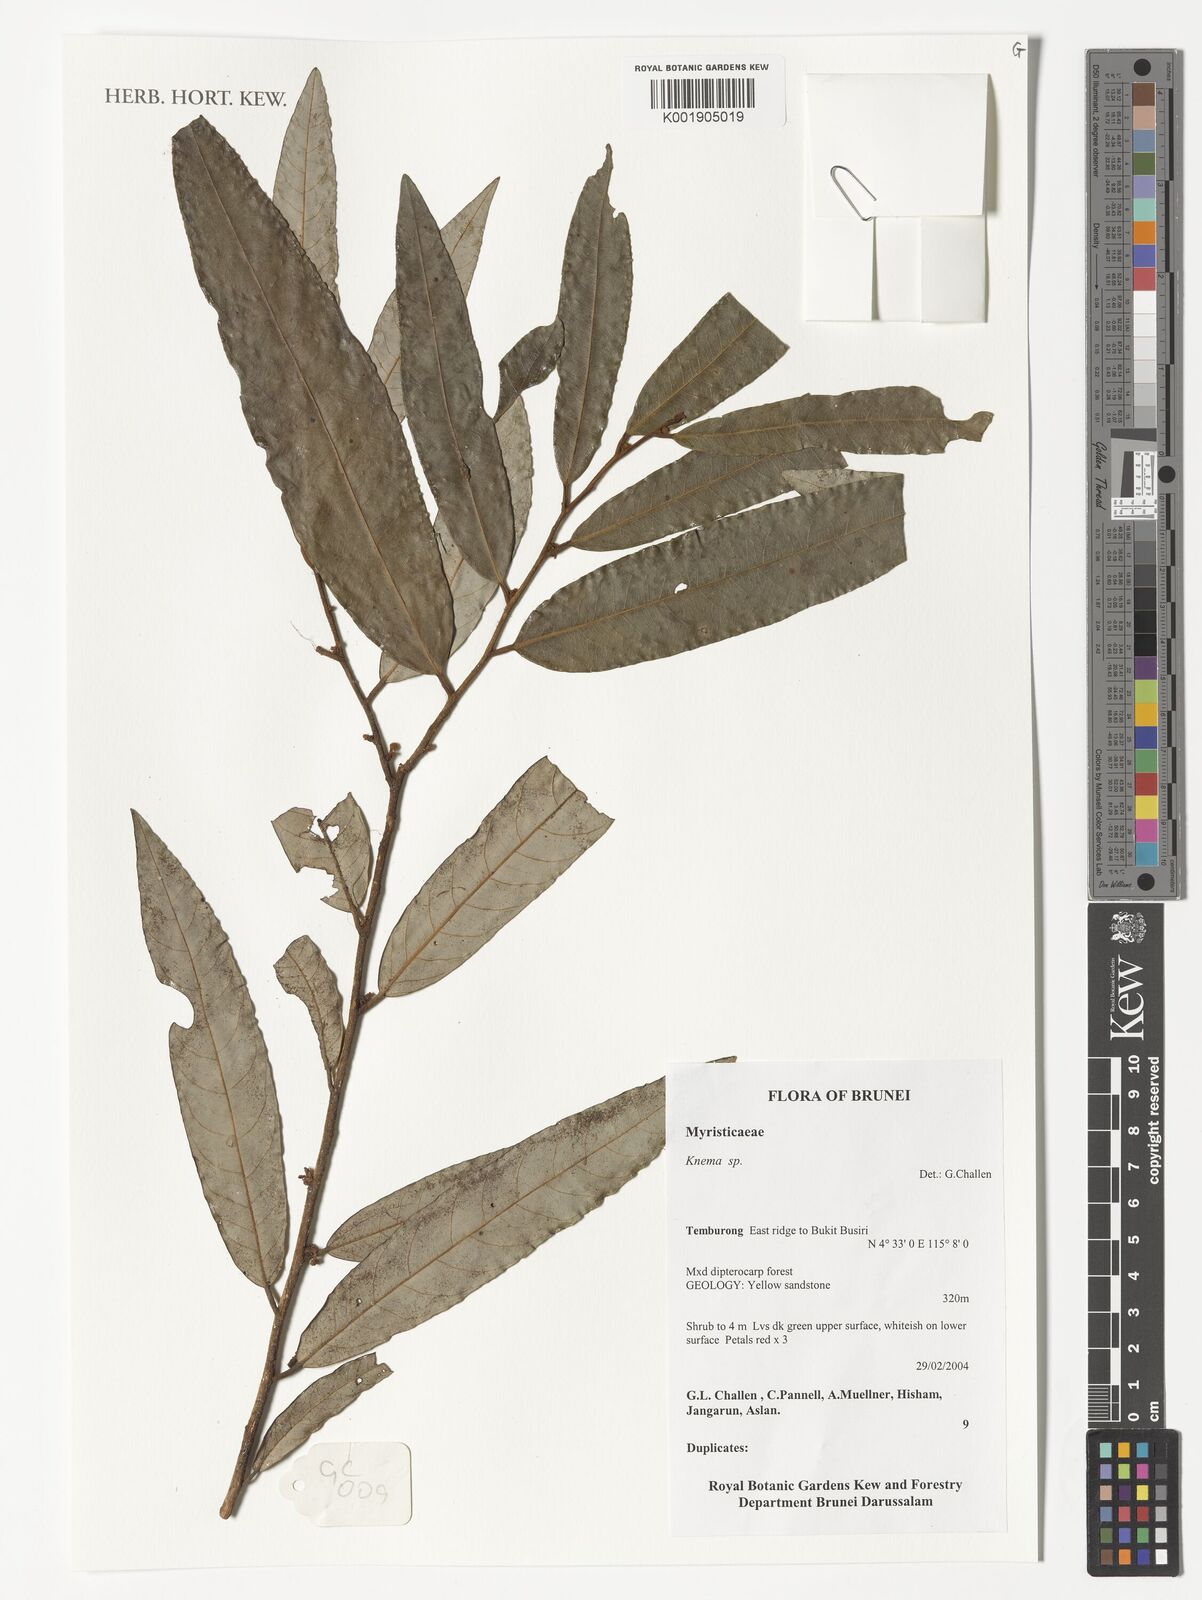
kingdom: Plantae
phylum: Tracheophyta
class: Magnoliopsida
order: Magnoliales
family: Myristicaceae
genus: Knema
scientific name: Knema
